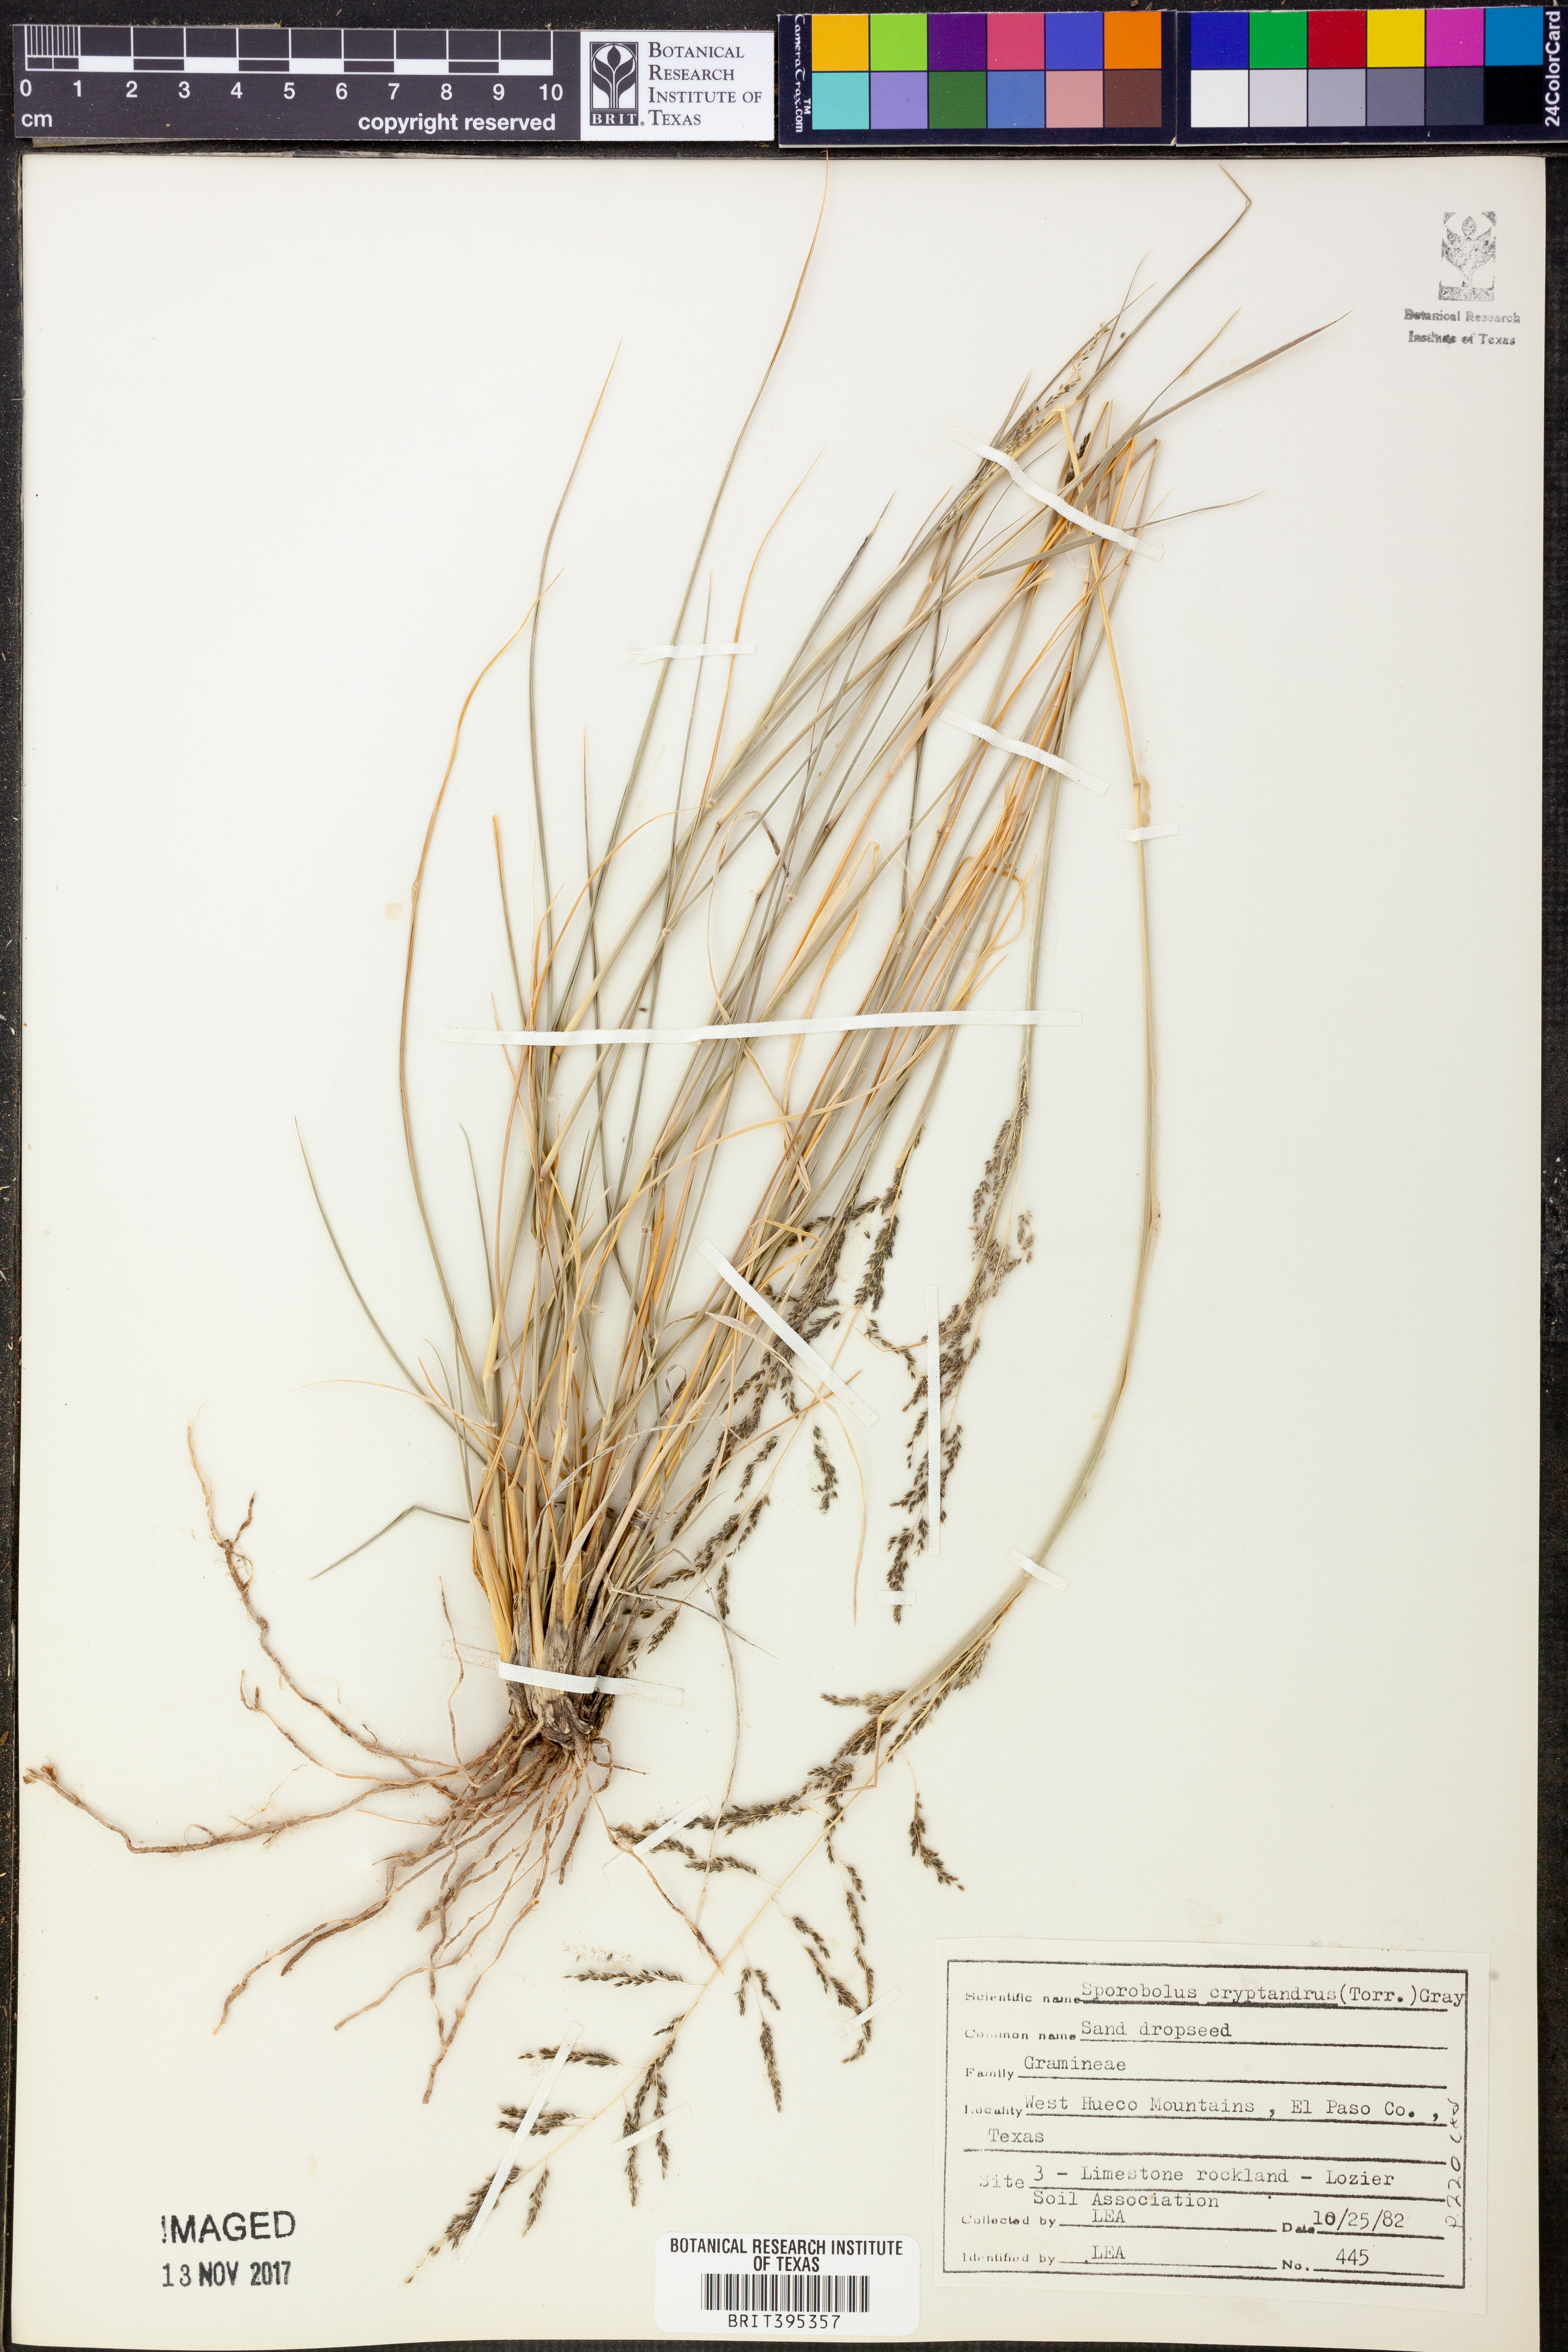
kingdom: Plantae
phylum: Tracheophyta
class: Liliopsida
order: Poales
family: Poaceae
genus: Sporobolus
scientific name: Sporobolus cryptandrus
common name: Sand dropseed
